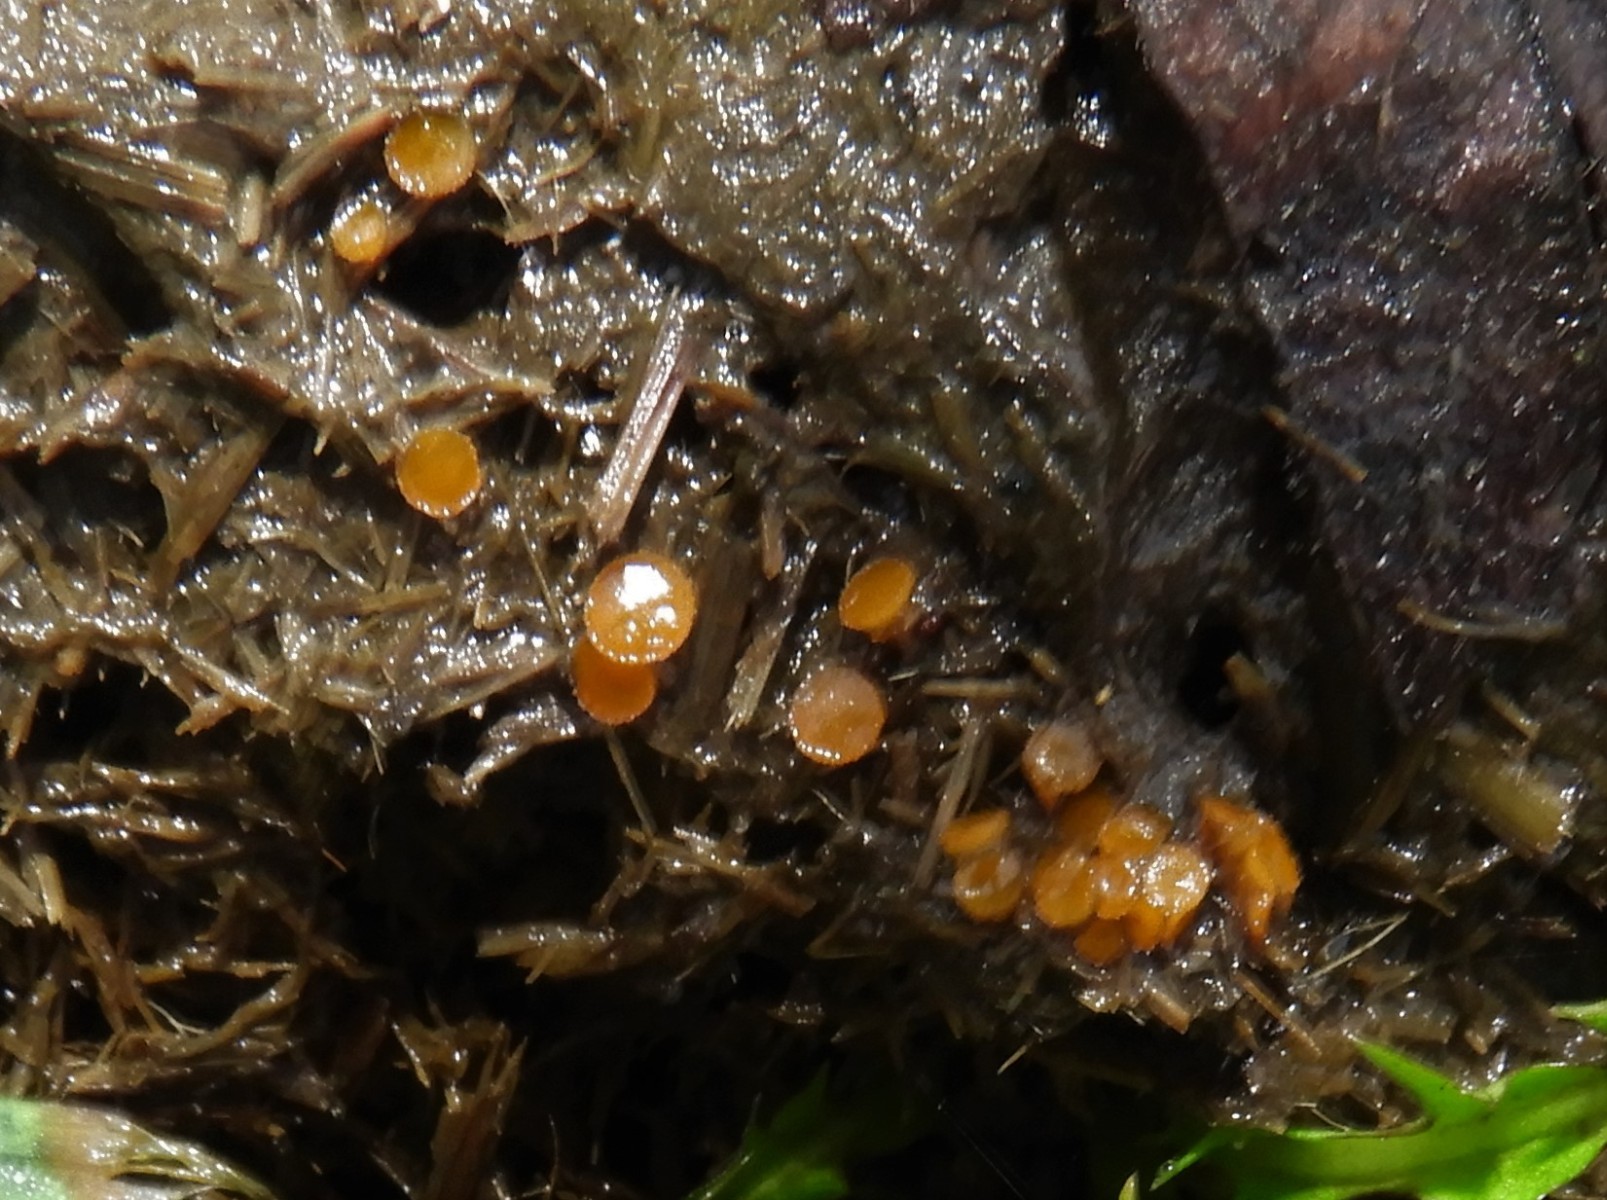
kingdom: Fungi
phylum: Ascomycota
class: Pezizomycetes
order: Pezizales
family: Pyronemataceae
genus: Cheilymenia
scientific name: Cheilymenia granulata
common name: møgbæger
